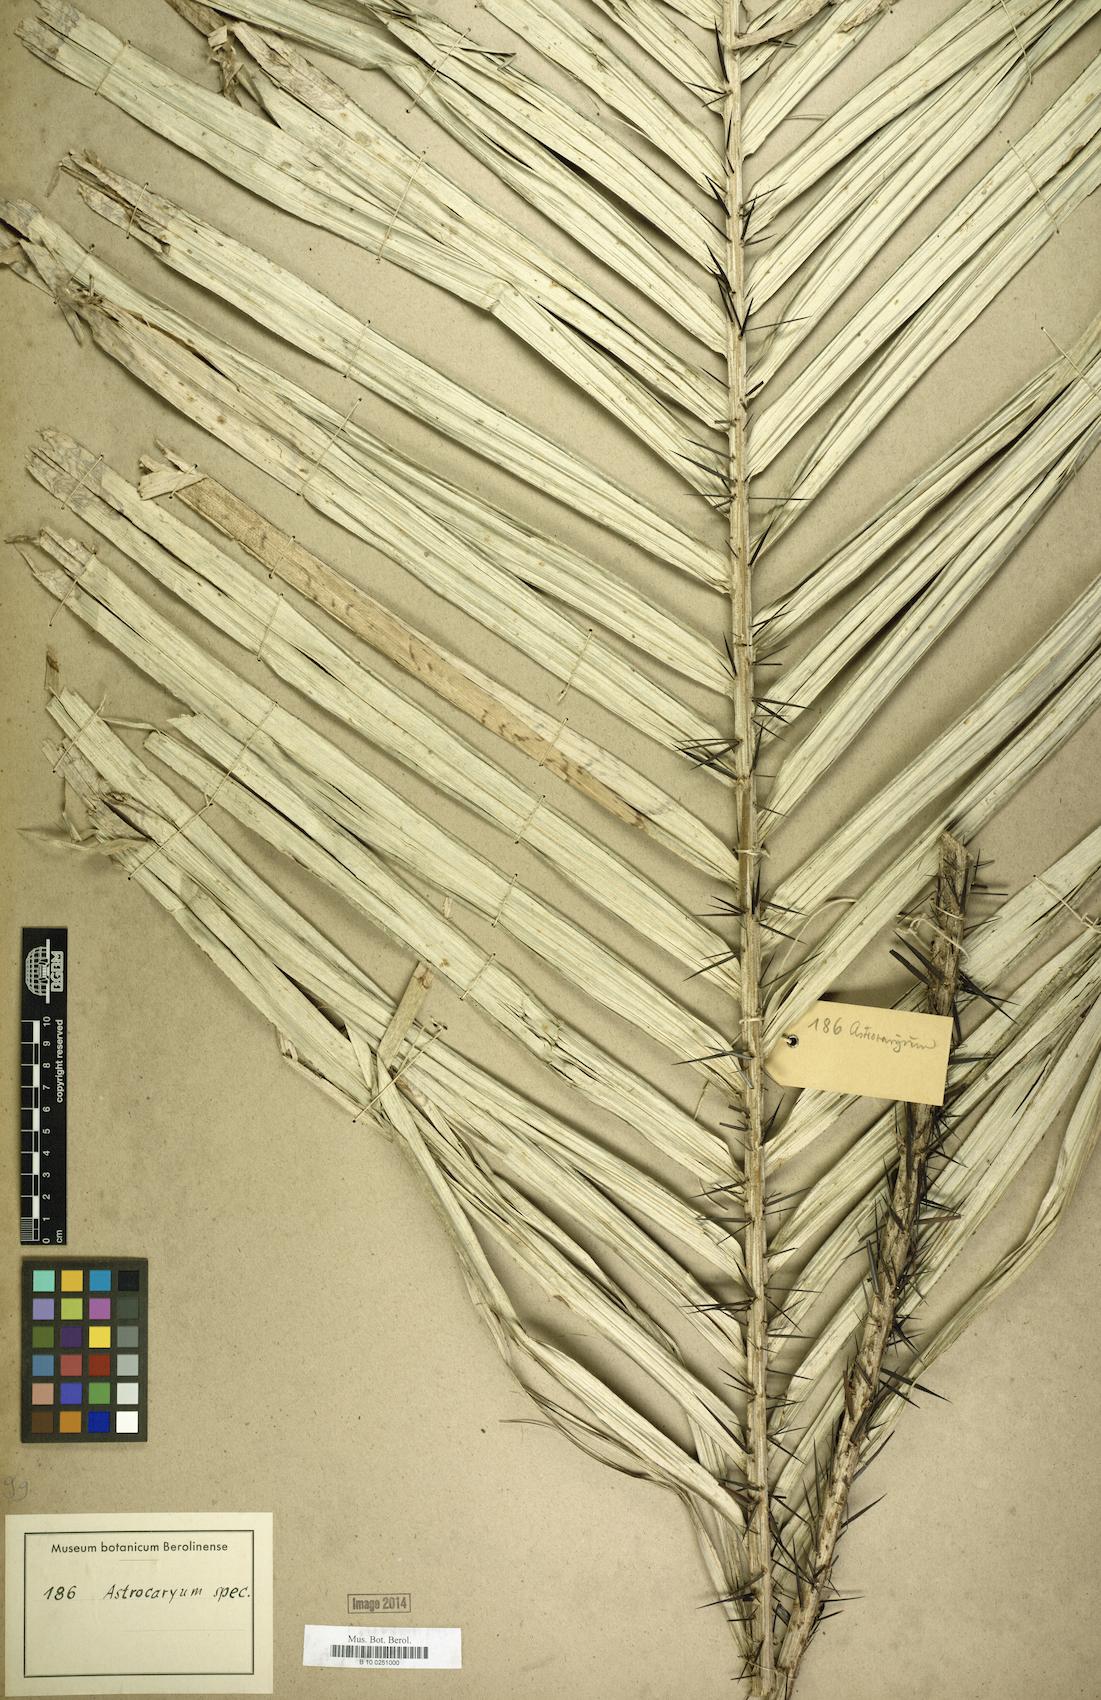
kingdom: Plantae
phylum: Tracheophyta
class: Liliopsida
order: Arecales
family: Arecaceae
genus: Astrocaryum
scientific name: Astrocaryum
